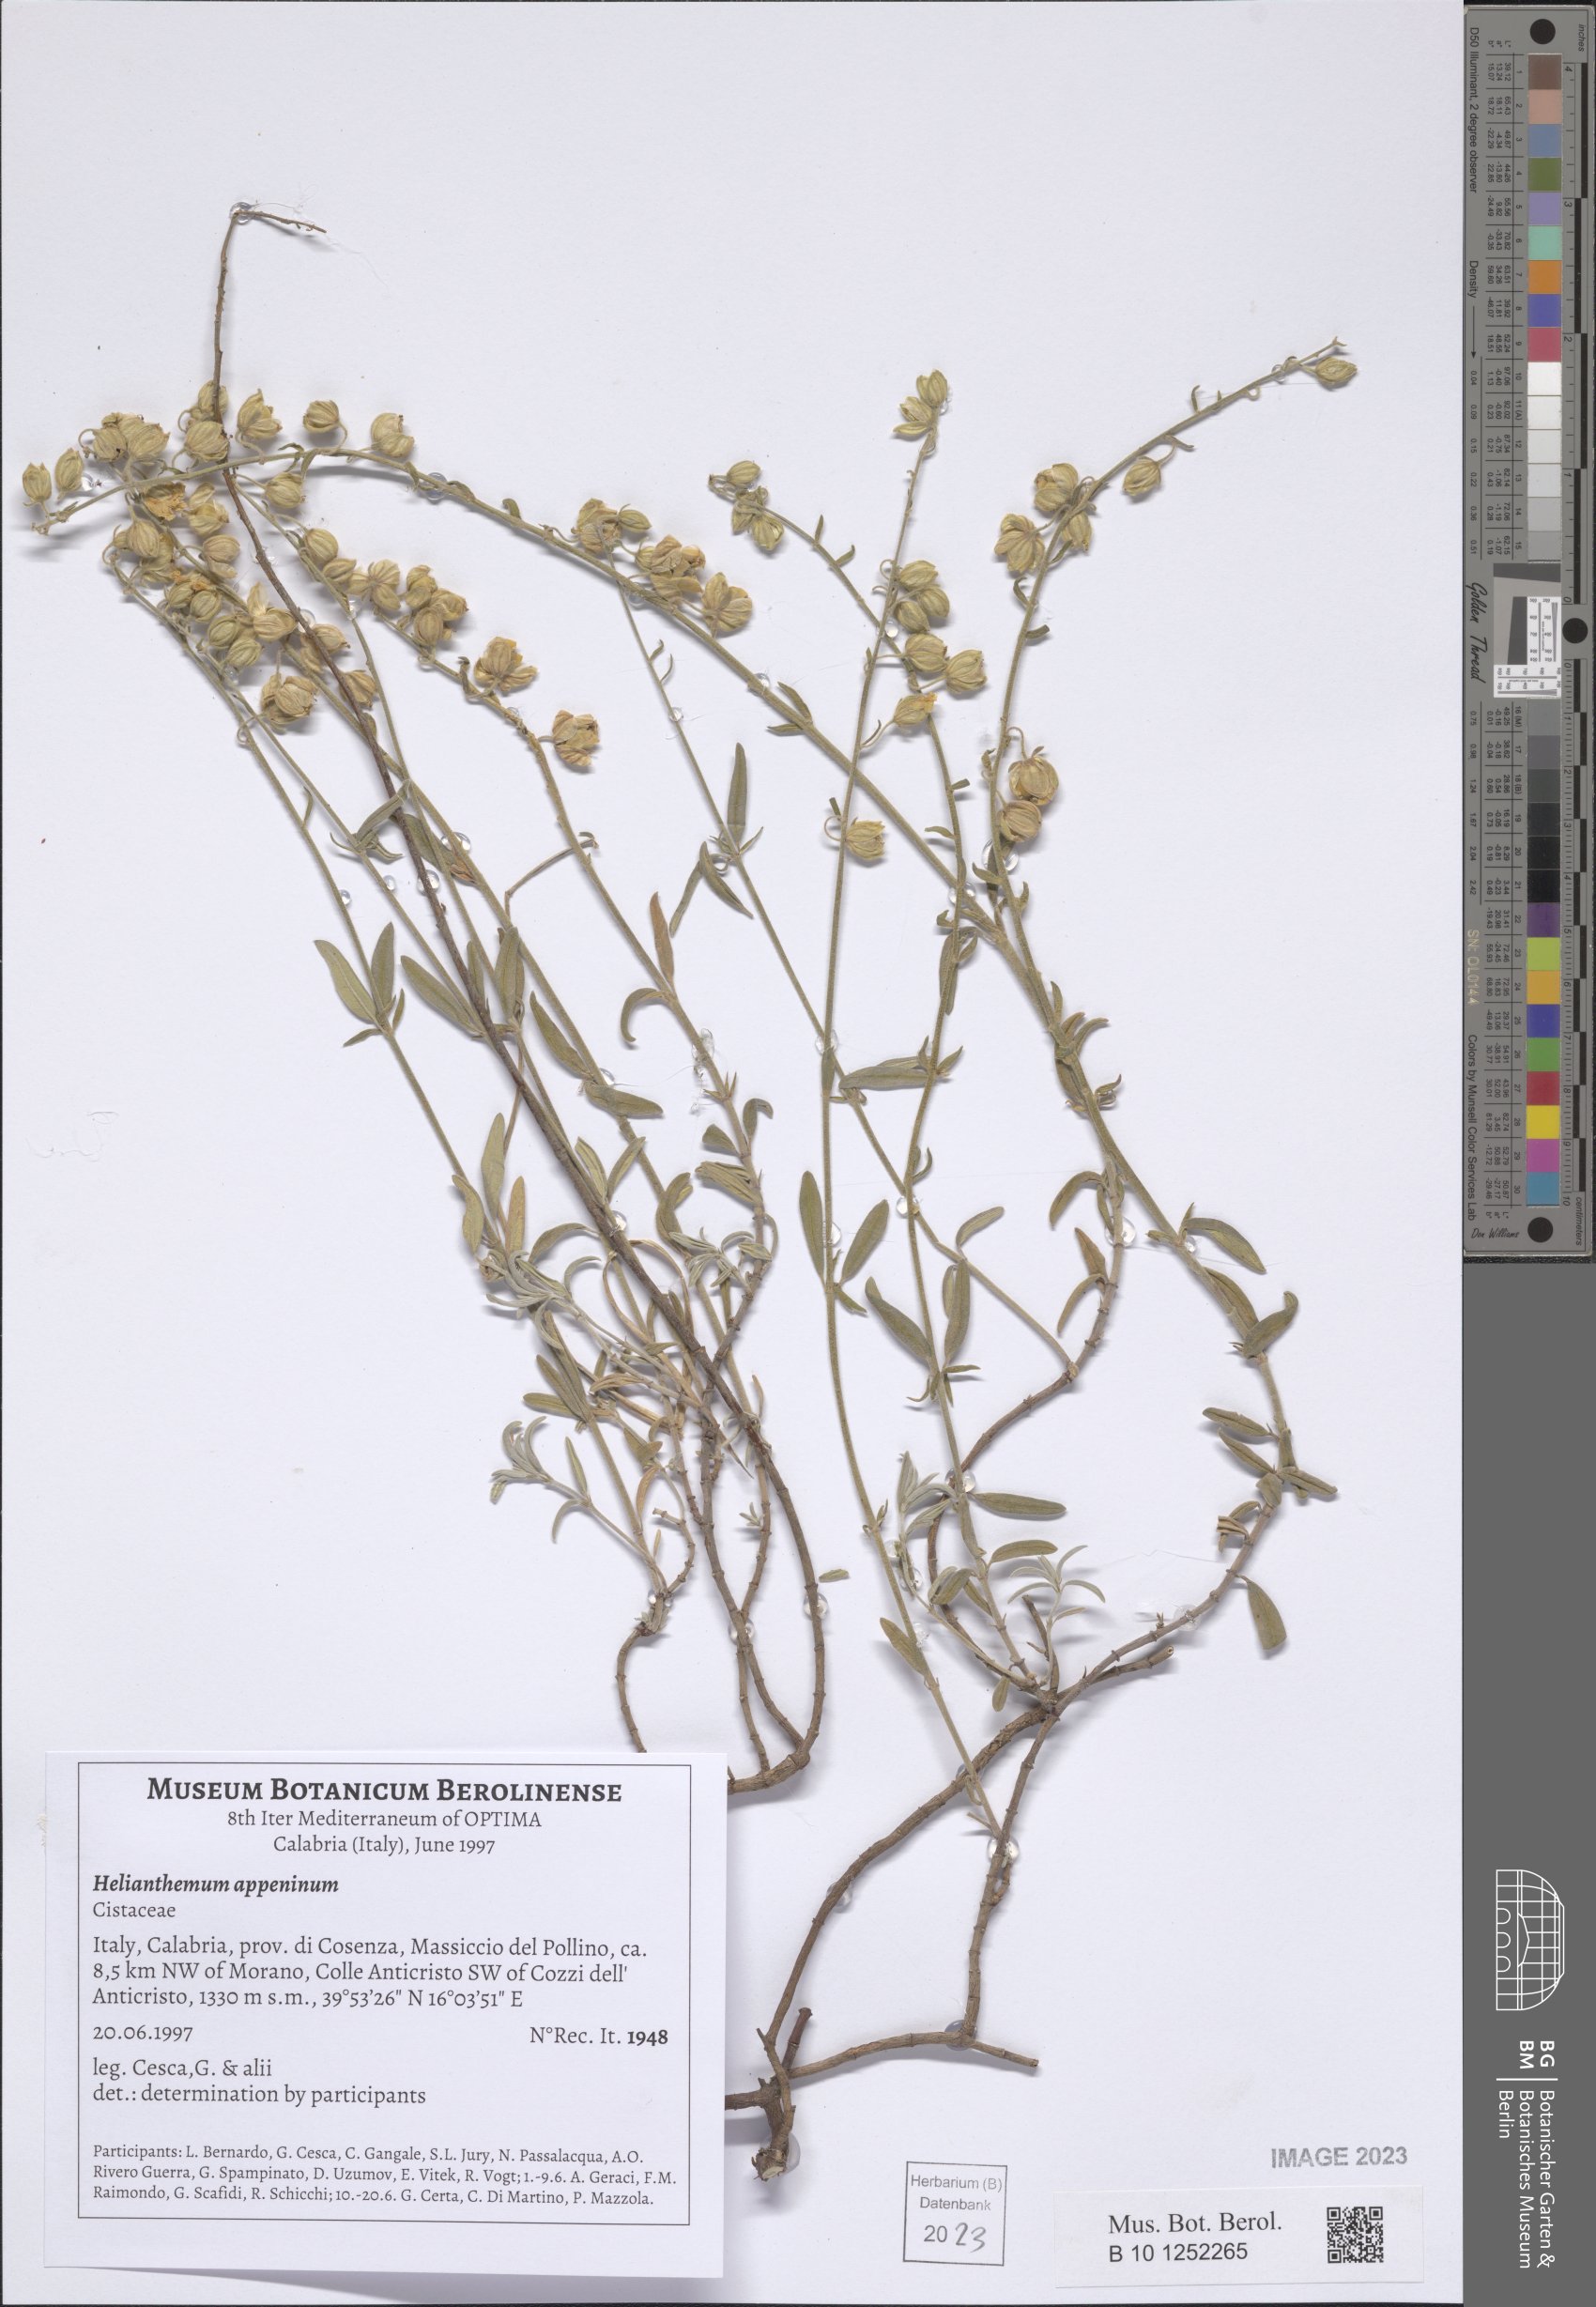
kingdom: Plantae
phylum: Tracheophyta
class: Magnoliopsida
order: Malvales
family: Cistaceae
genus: Helianthemum
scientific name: Helianthemum apenninum
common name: White rock-rose
